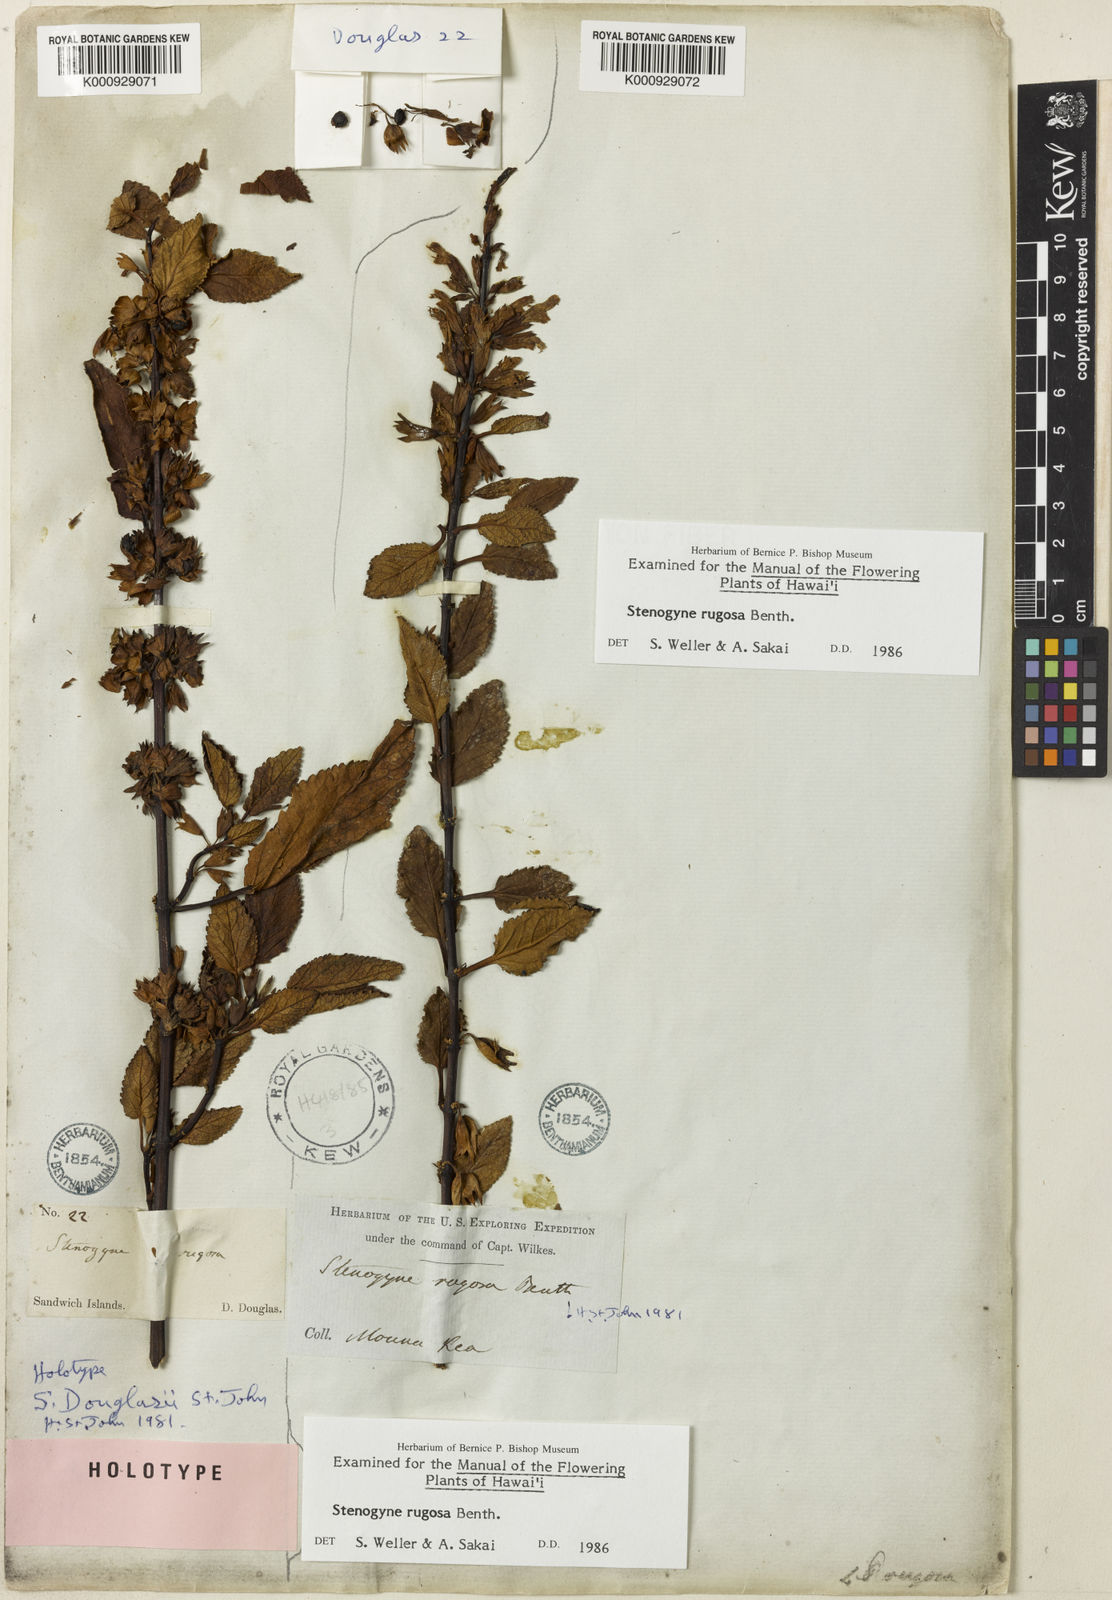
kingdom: Plantae
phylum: Tracheophyta
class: Magnoliopsida
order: Lamiales
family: Lamiaceae
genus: Stenogyne
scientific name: Stenogyne rugosa
